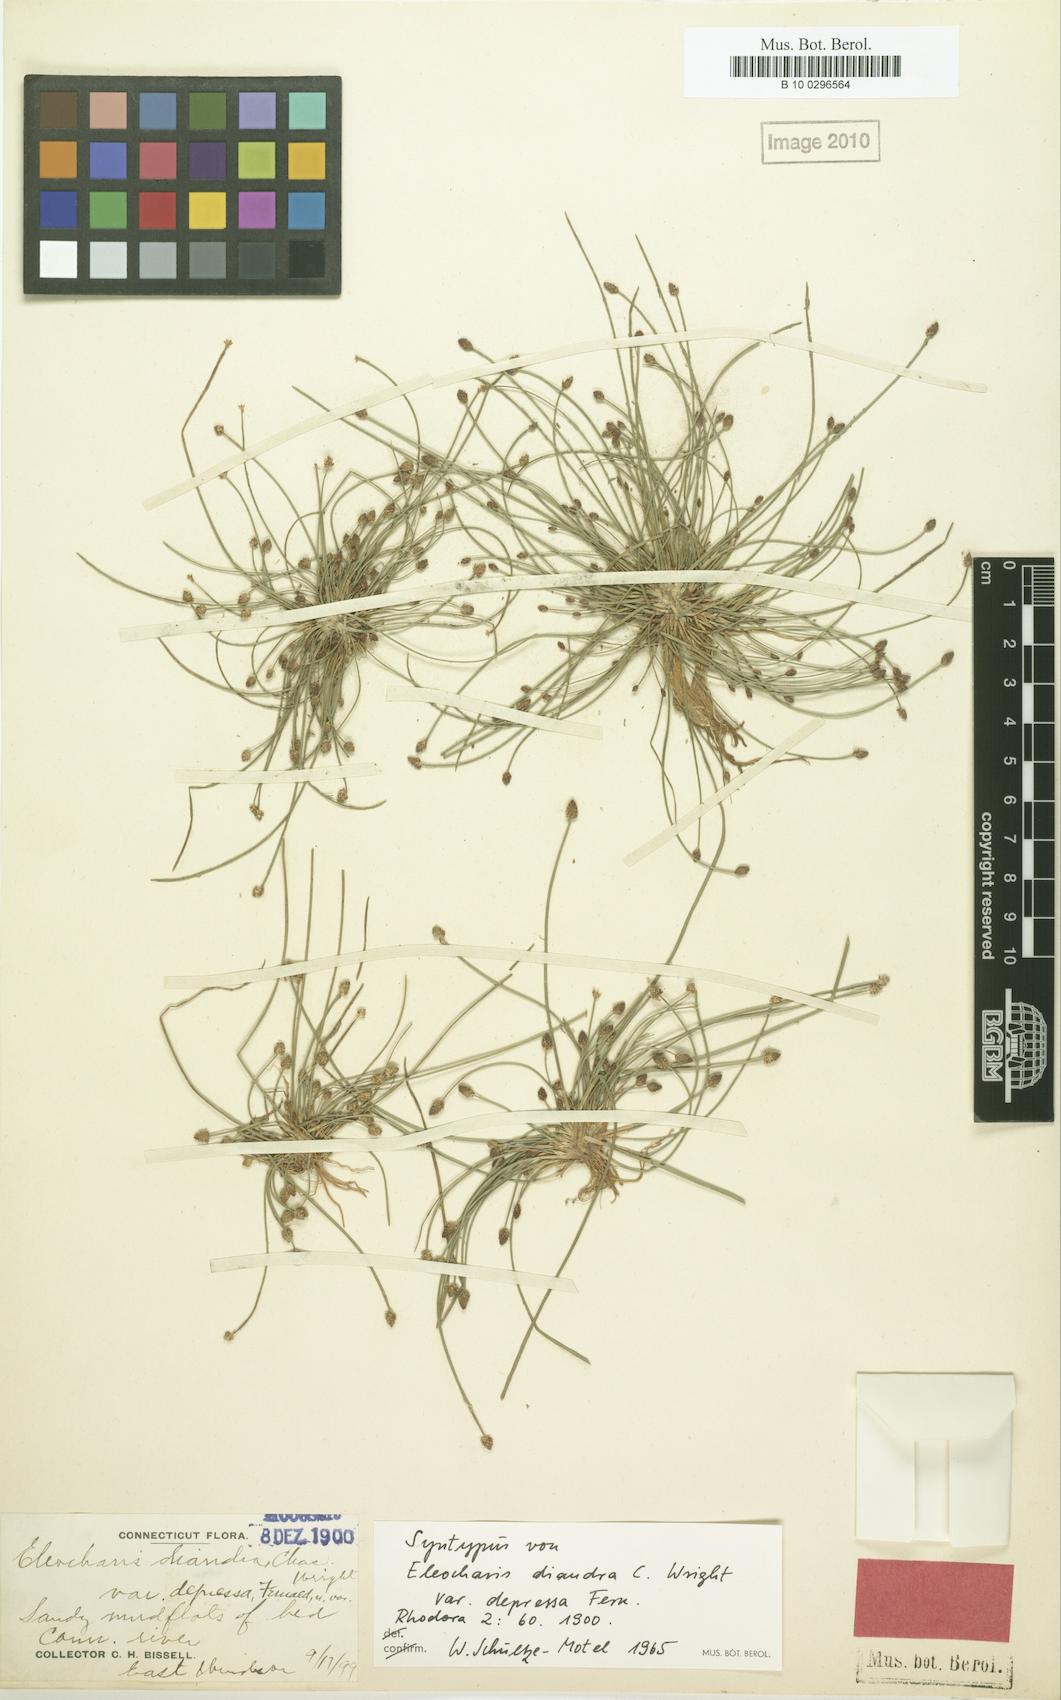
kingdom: Plantae
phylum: Tracheophyta
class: Liliopsida
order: Poales
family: Cyperaceae
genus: Eleocharis
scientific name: Eleocharis obtusa
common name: Blunt spikerush
